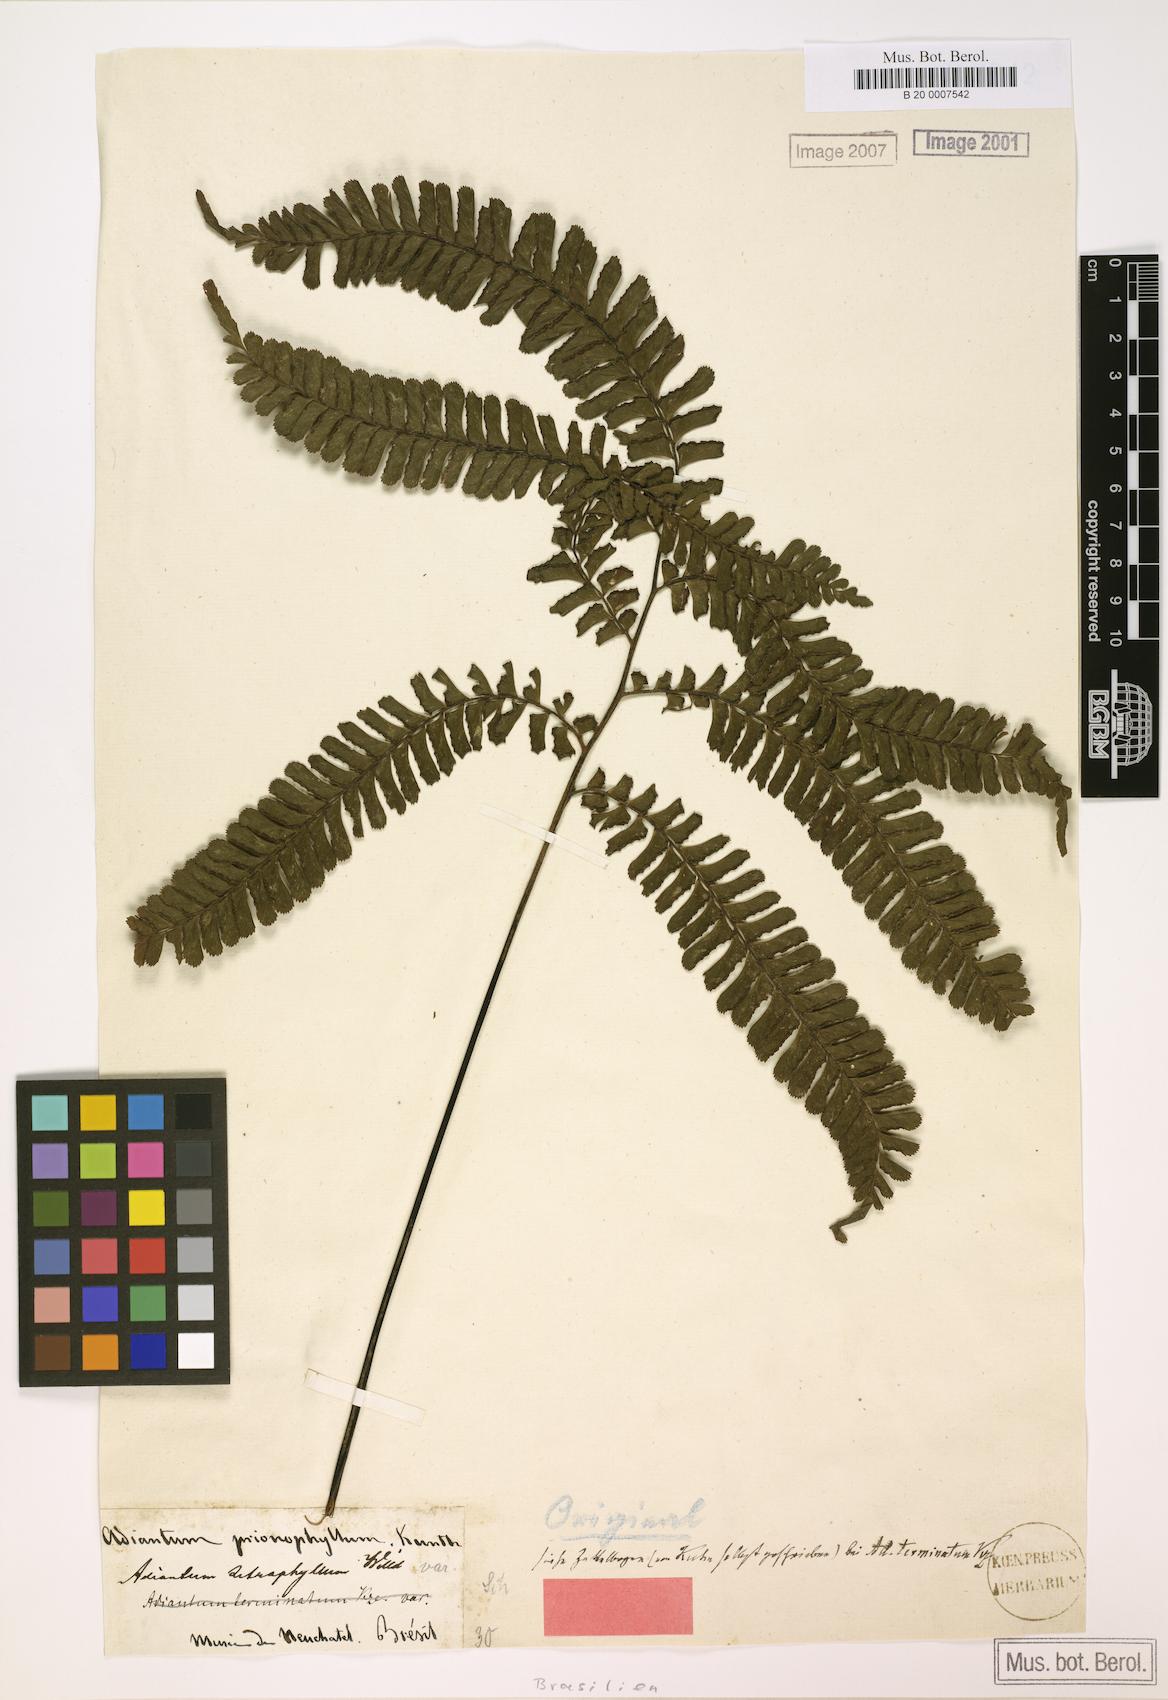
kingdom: Plantae
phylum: Tracheophyta
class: Polypodiopsida
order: Polypodiales
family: Pteridaceae
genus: Adiantum
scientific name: Adiantum terminatum
